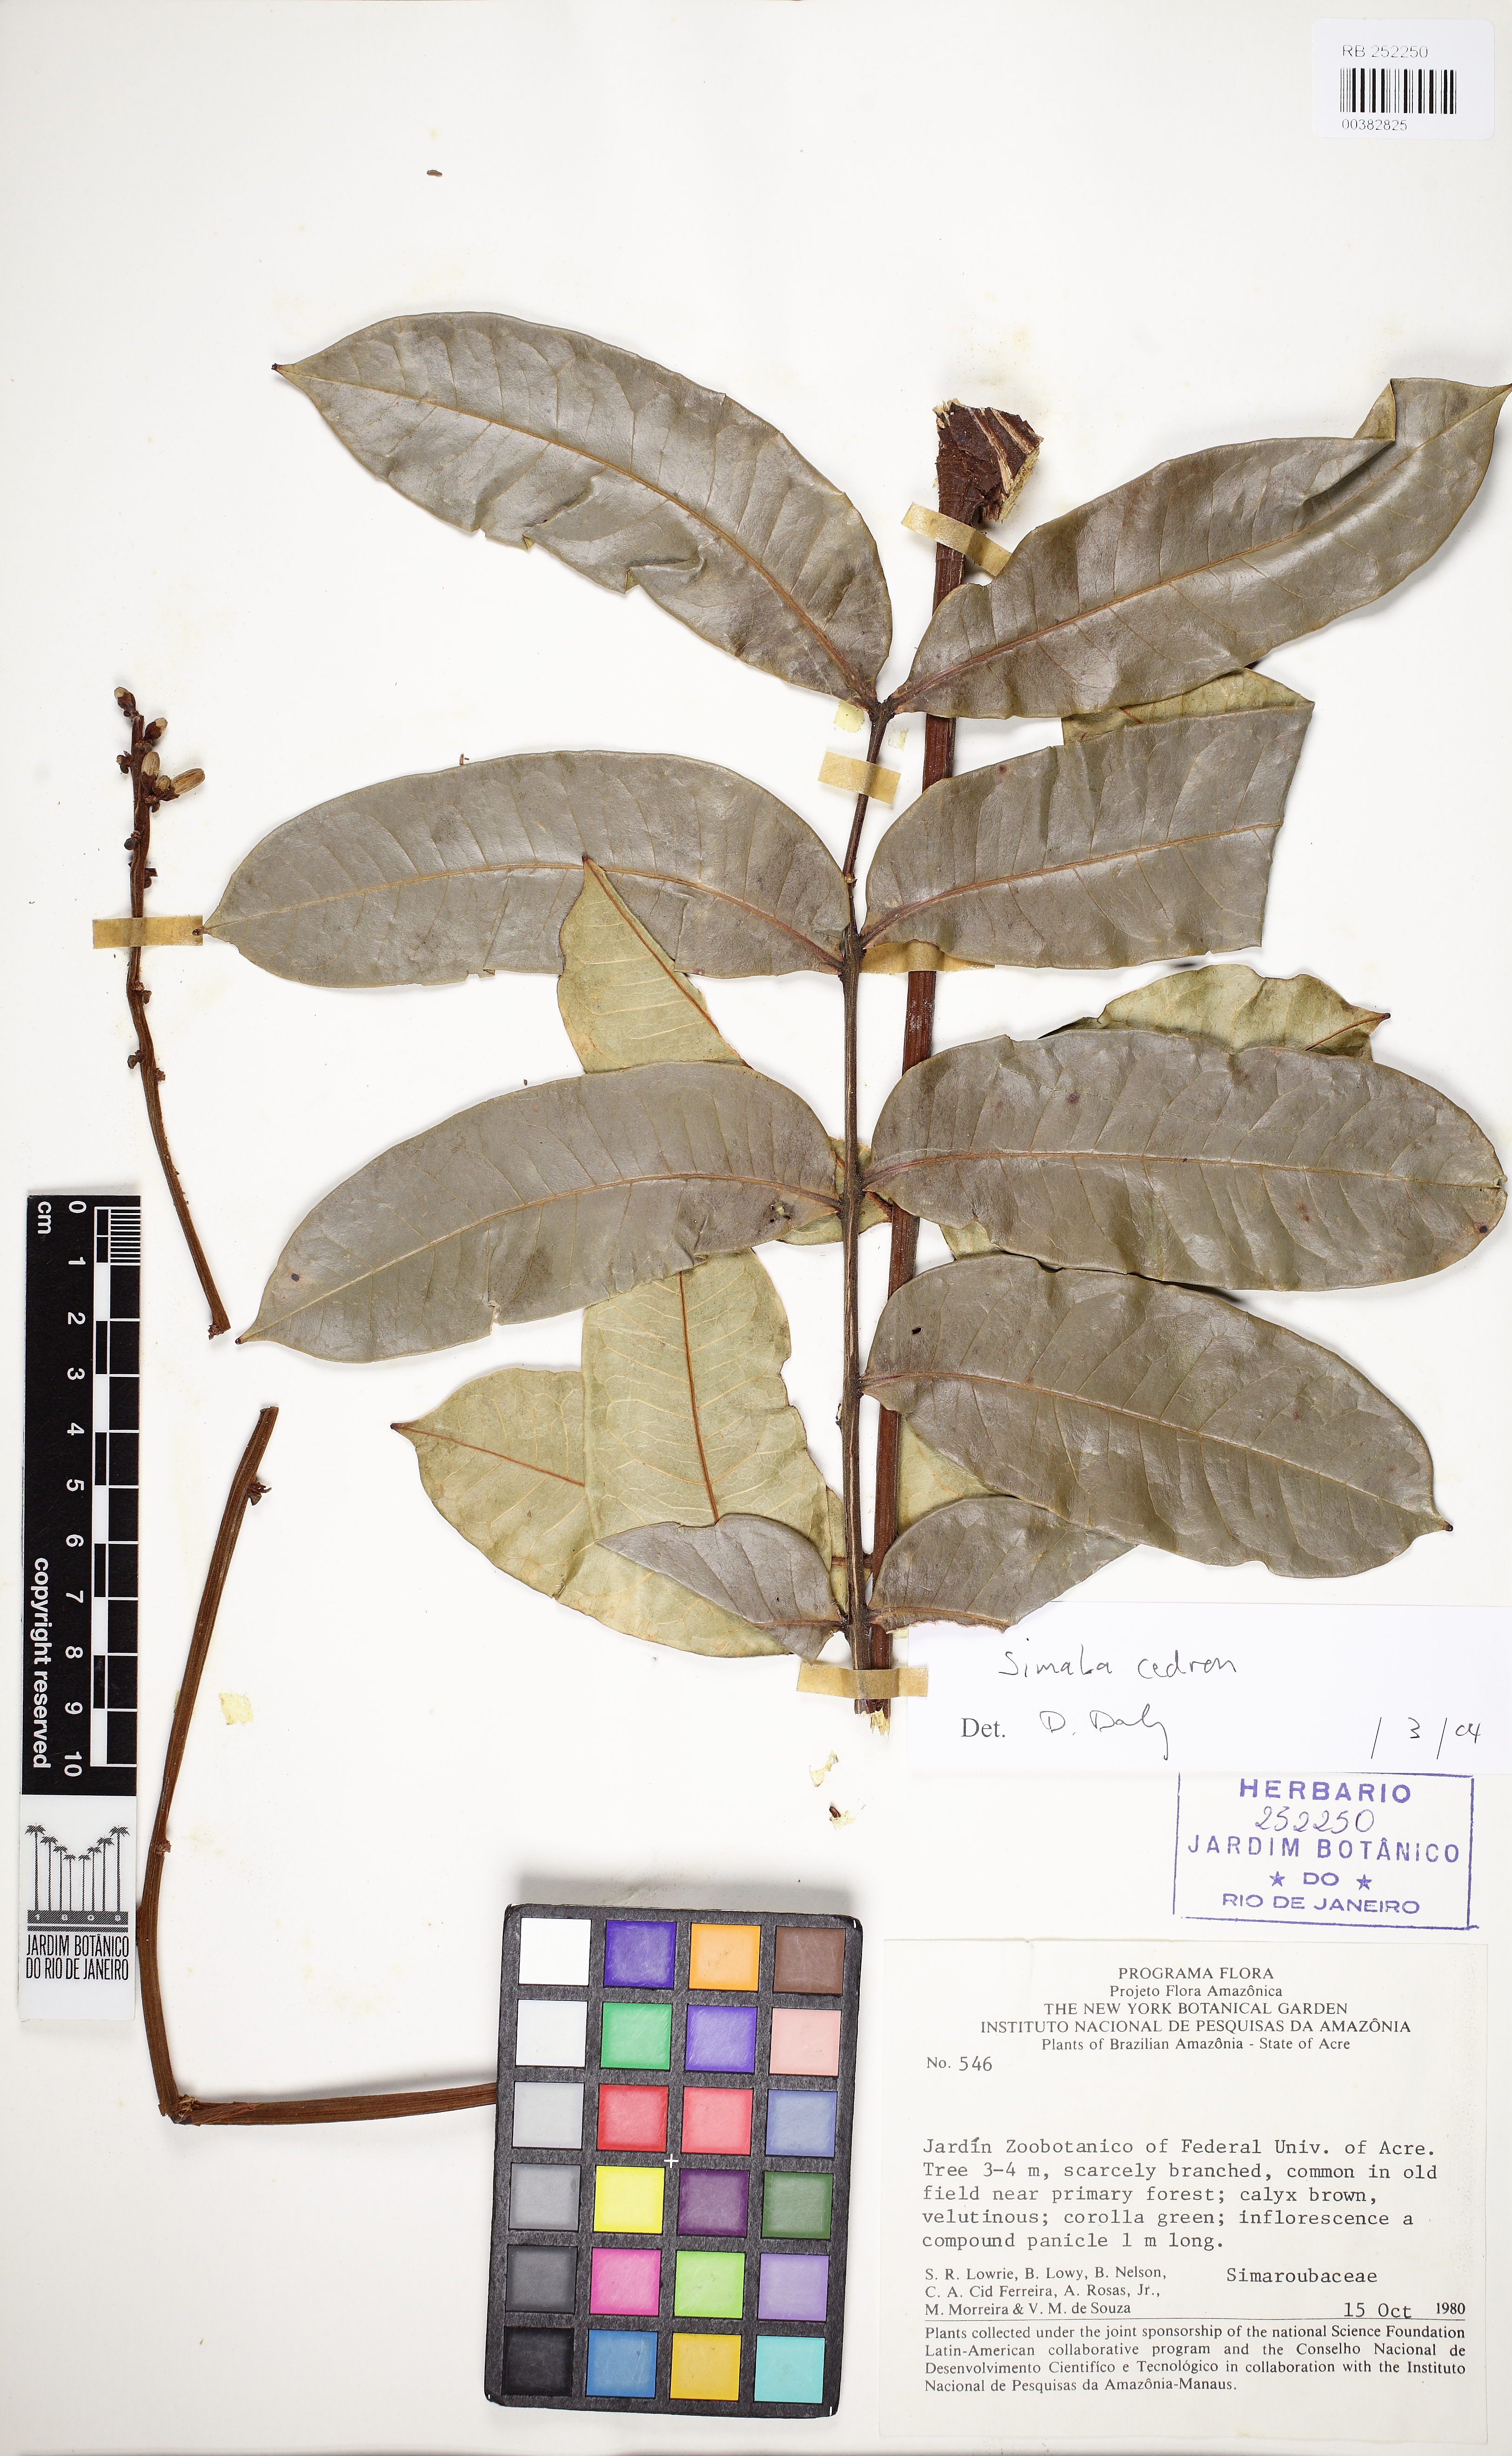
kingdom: Plantae
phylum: Tracheophyta
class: Magnoliopsida
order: Sapindales
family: Simaroubaceae
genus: Homalolepis
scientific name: Homalolepis cedron
